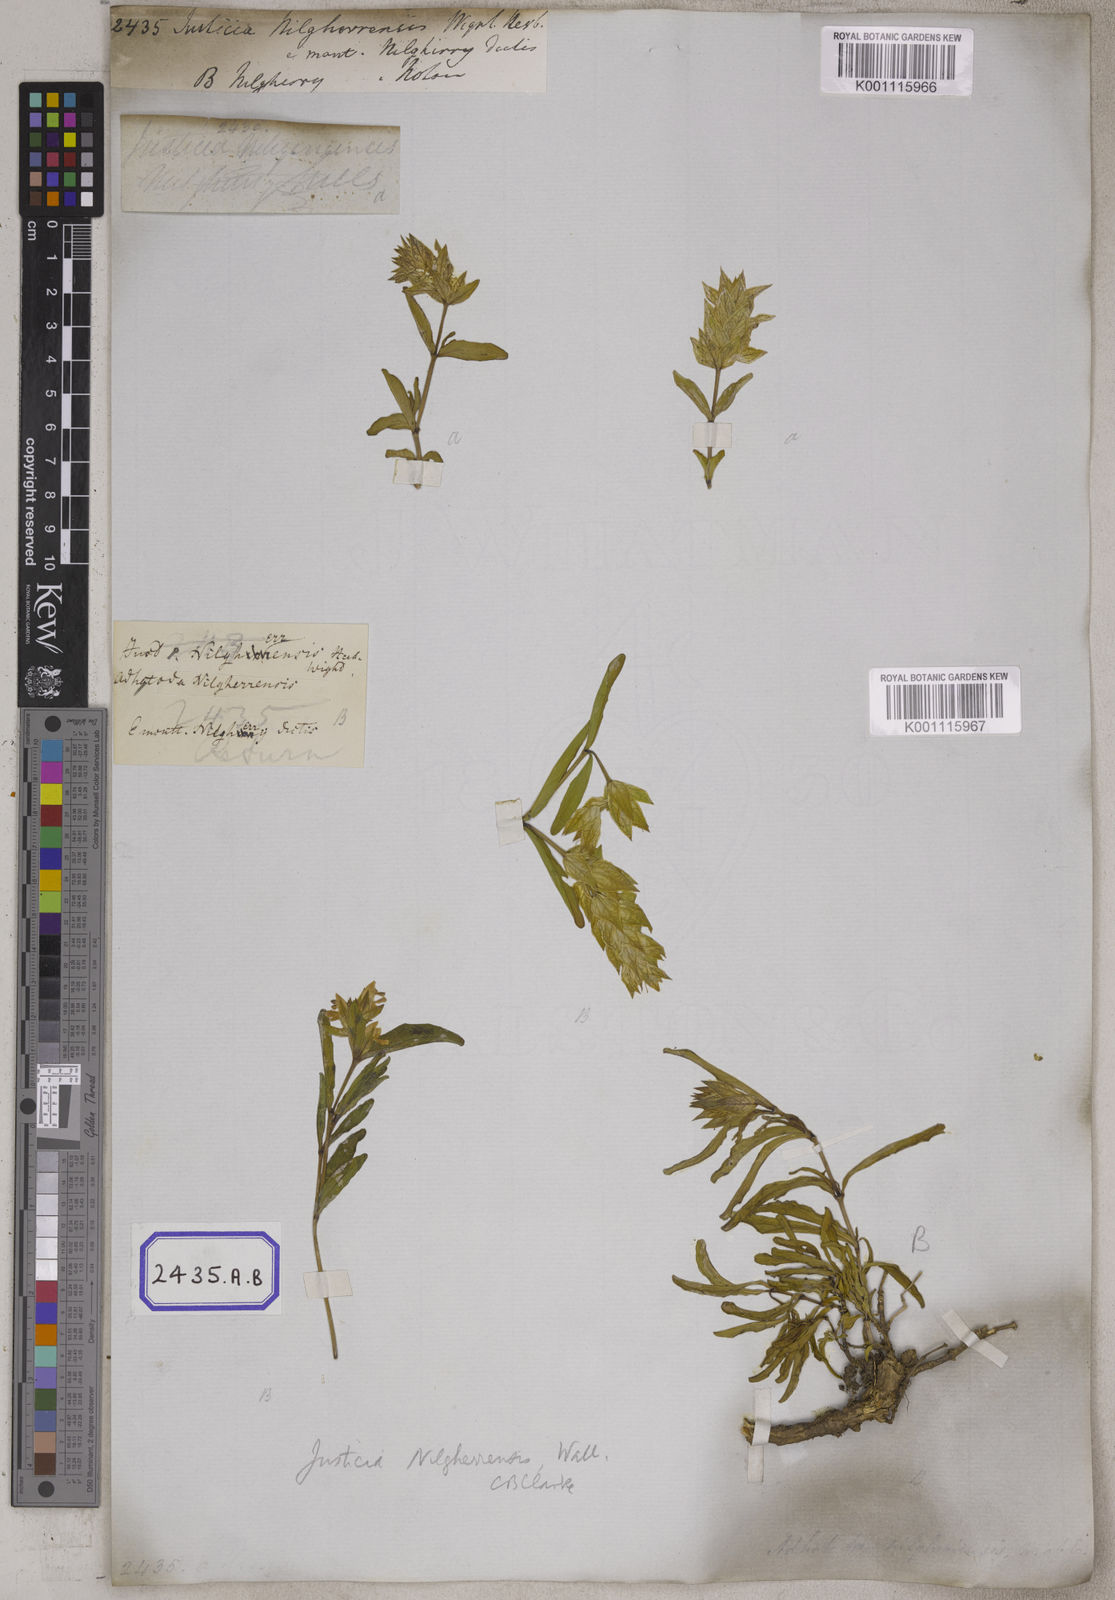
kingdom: Plantae
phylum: Tracheophyta
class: Magnoliopsida
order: Lamiales
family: Acanthaceae
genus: Justicia
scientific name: Justicia
